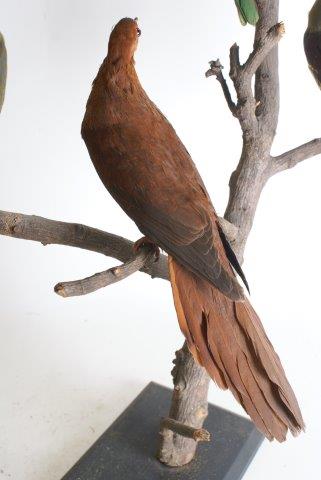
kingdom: Animalia
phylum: Chordata
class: Aves
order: Columbiformes
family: Columbidae
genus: Macropygia
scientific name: Macropygia
